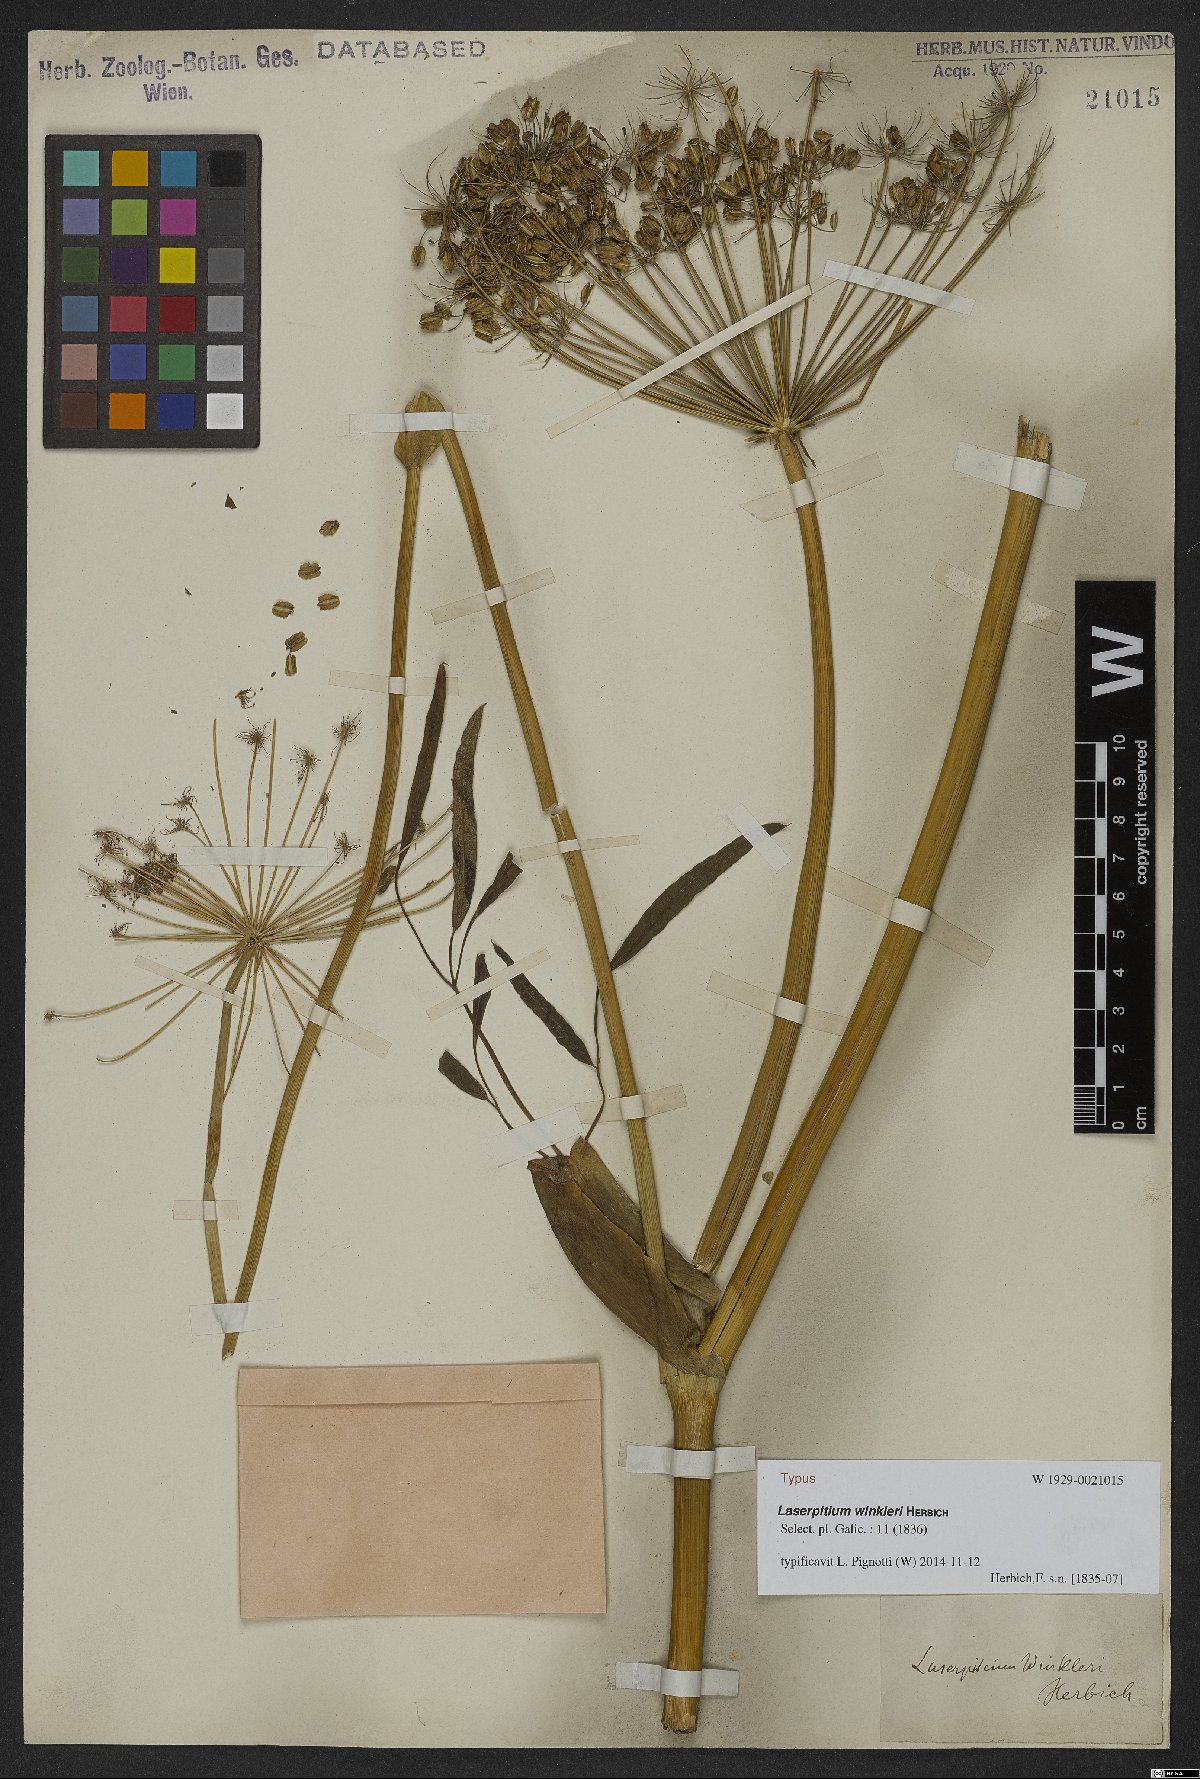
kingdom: Plantae
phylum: Tracheophyta
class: Magnoliopsida
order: Apiales
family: Apiaceae
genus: Laserpitium
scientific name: Laserpitium winkleri
